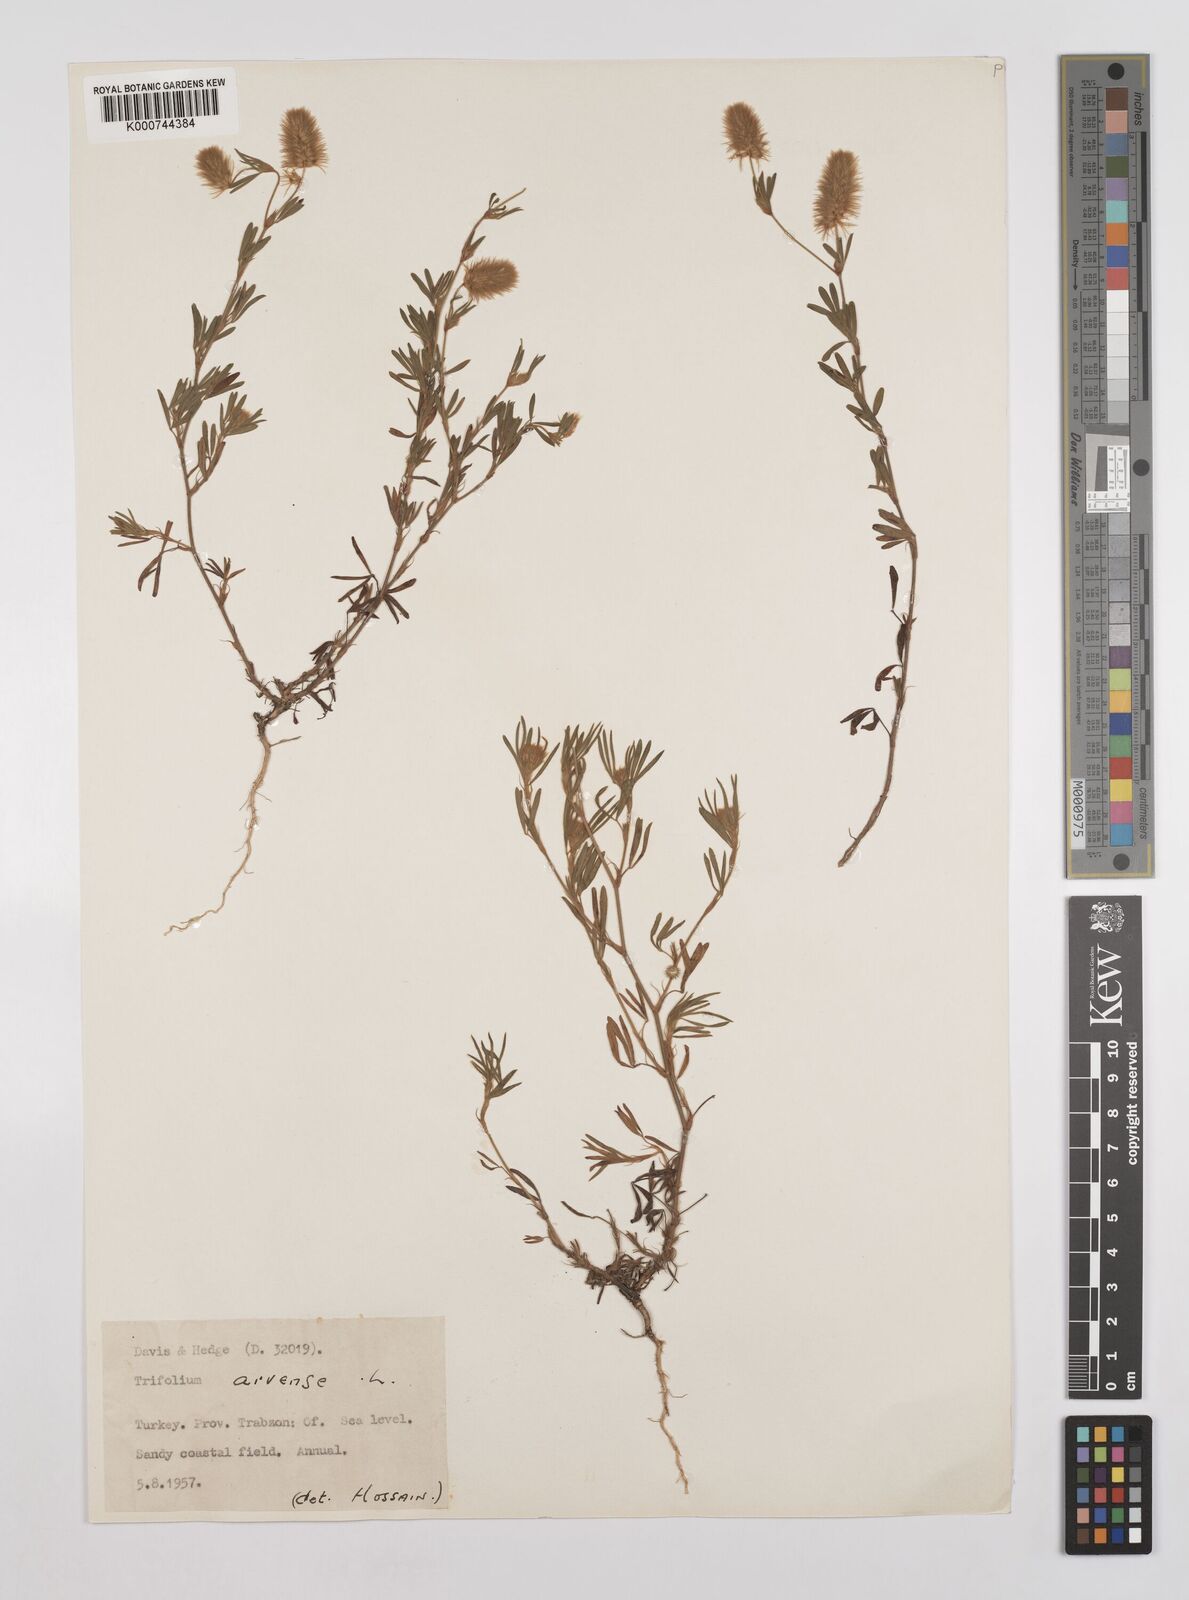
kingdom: Plantae
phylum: Tracheophyta
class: Magnoliopsida
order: Fabales
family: Fabaceae
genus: Trifolium
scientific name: Trifolium arvense
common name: Hare's-foot clover
